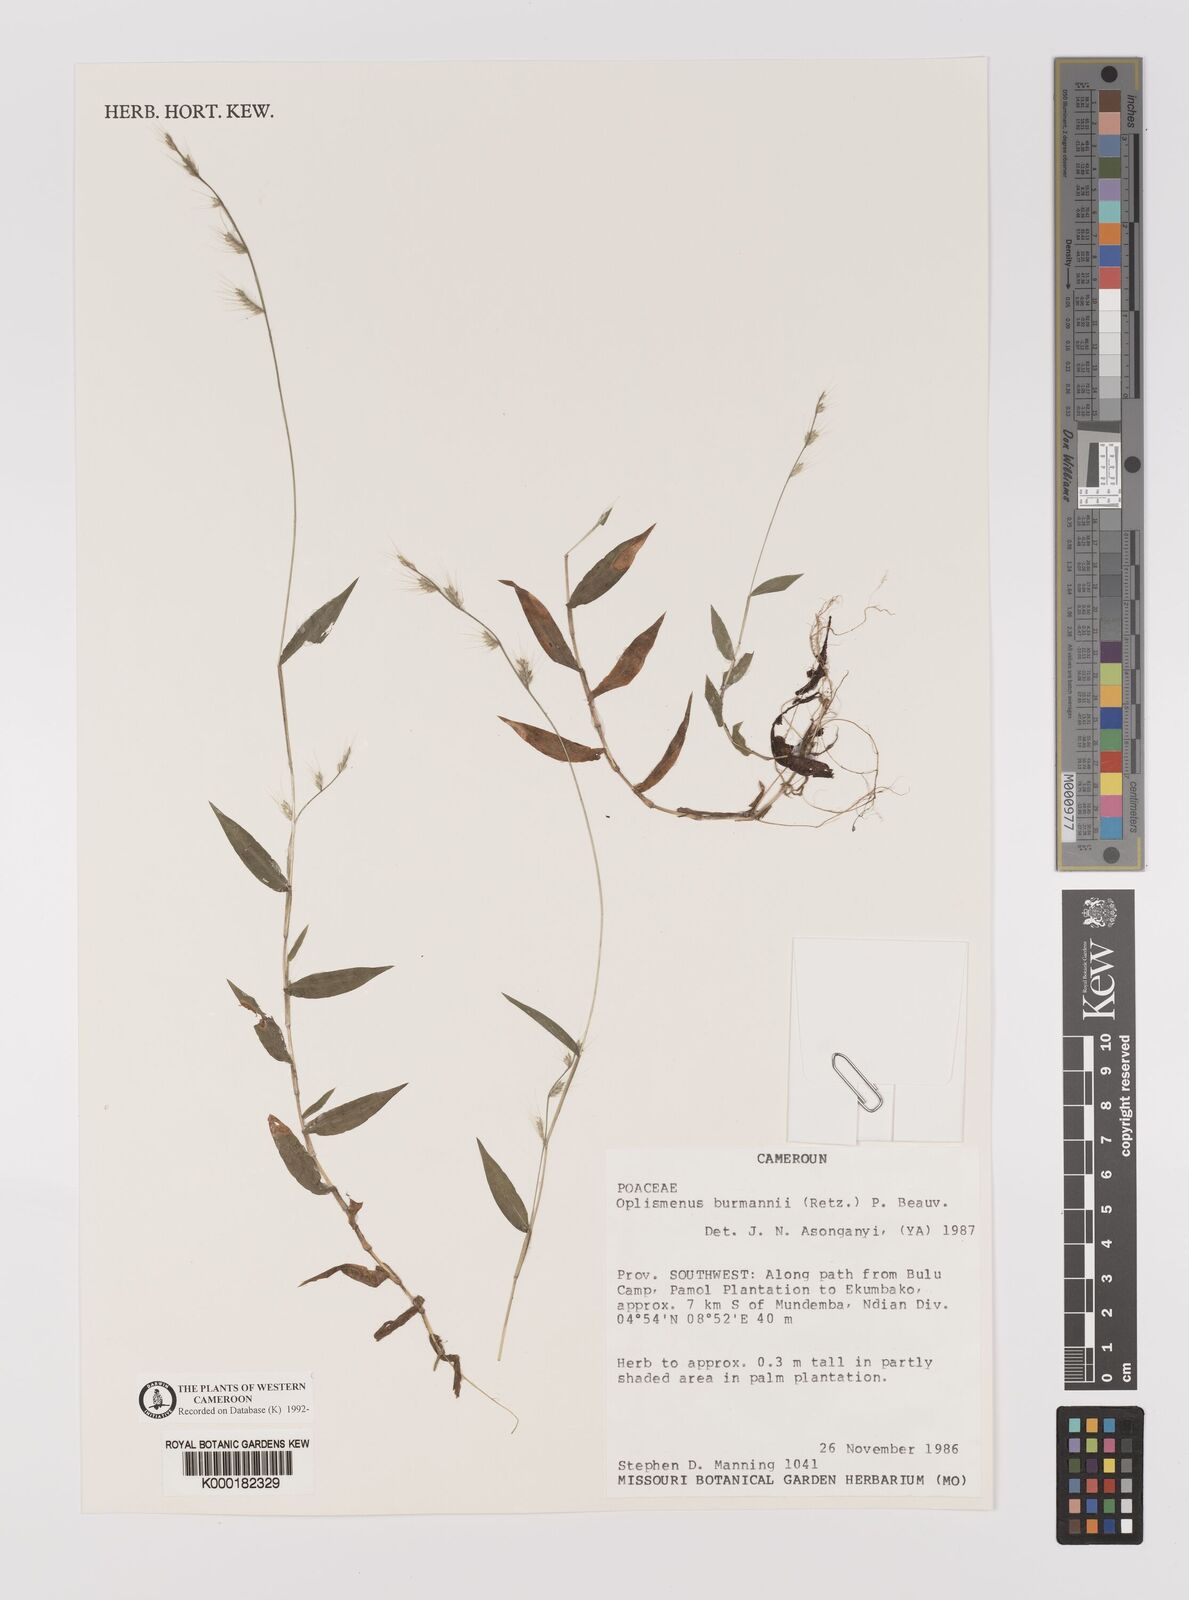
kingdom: Plantae
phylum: Tracheophyta
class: Liliopsida
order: Poales
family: Poaceae
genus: Oplismenus
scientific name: Oplismenus burmanni
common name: Burmann's basketgrass
